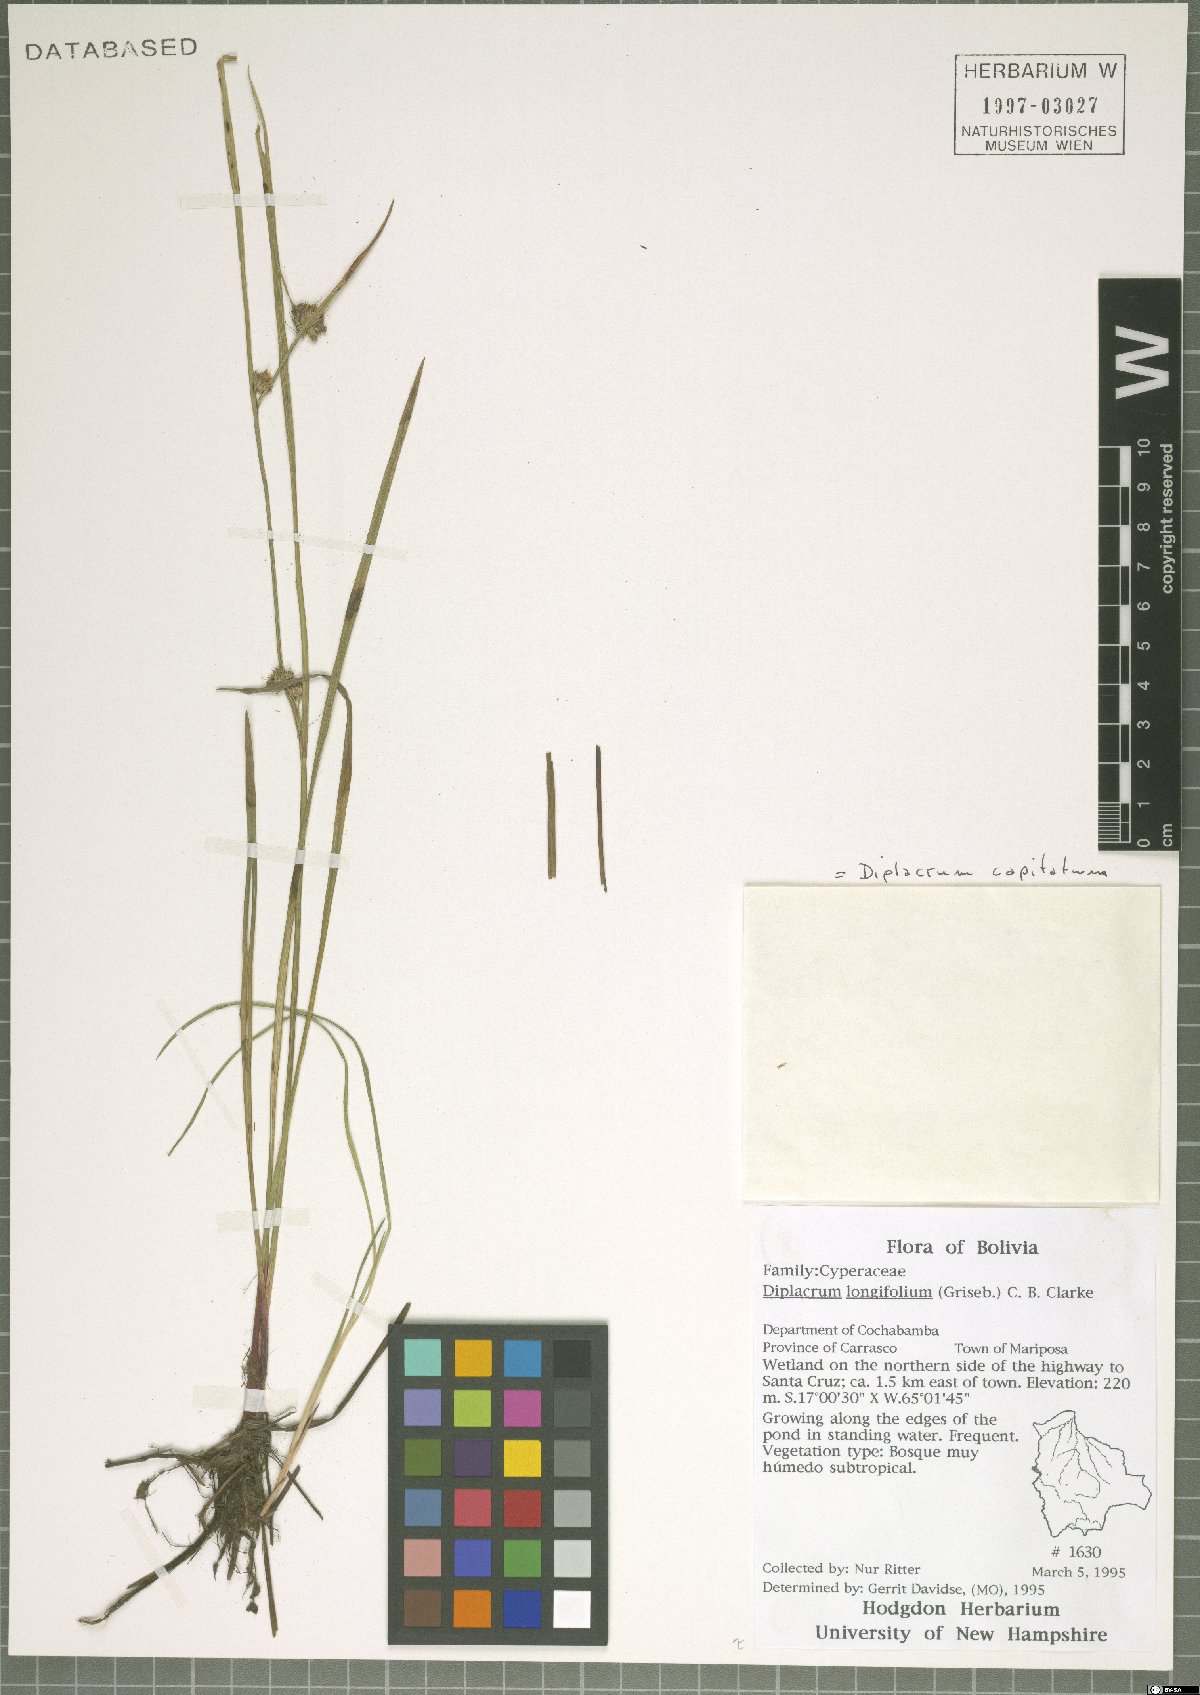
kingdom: Plantae
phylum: Tracheophyta
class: Liliopsida
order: Poales
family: Cyperaceae
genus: Diplacrum
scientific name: Diplacrum capitatum
